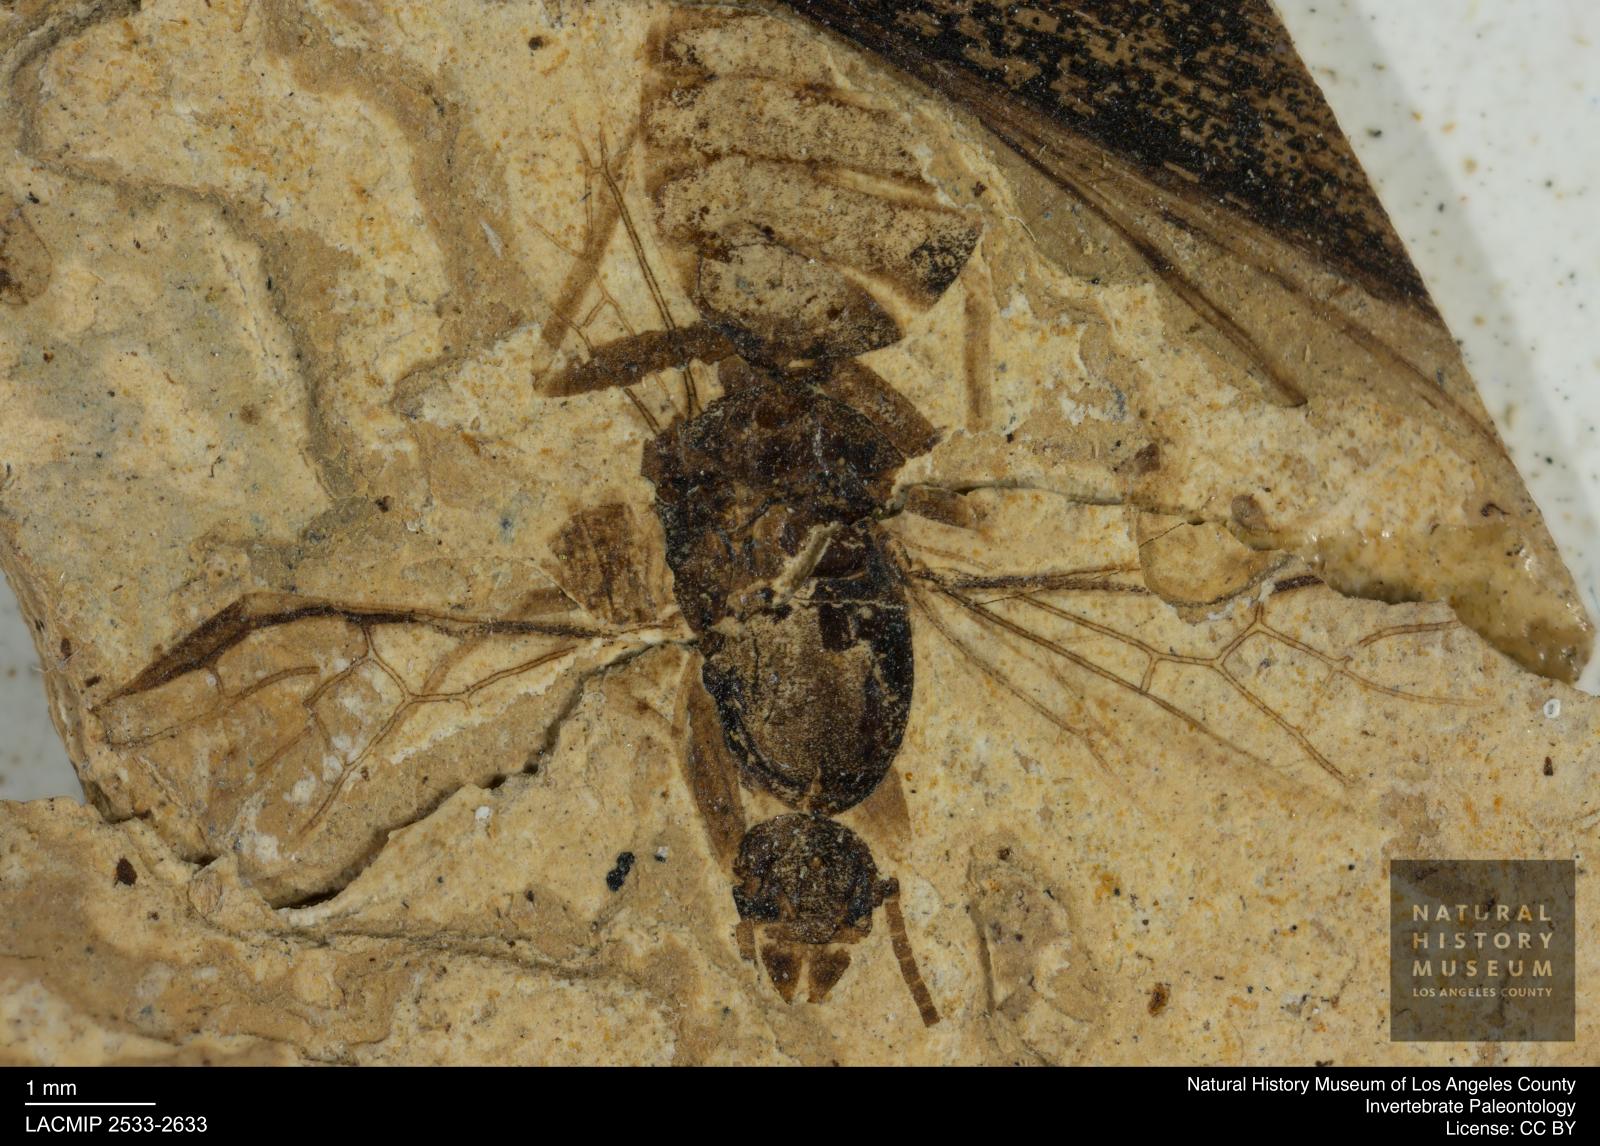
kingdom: Animalia
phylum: Arthropoda
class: Insecta
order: Diptera
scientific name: Diptera
